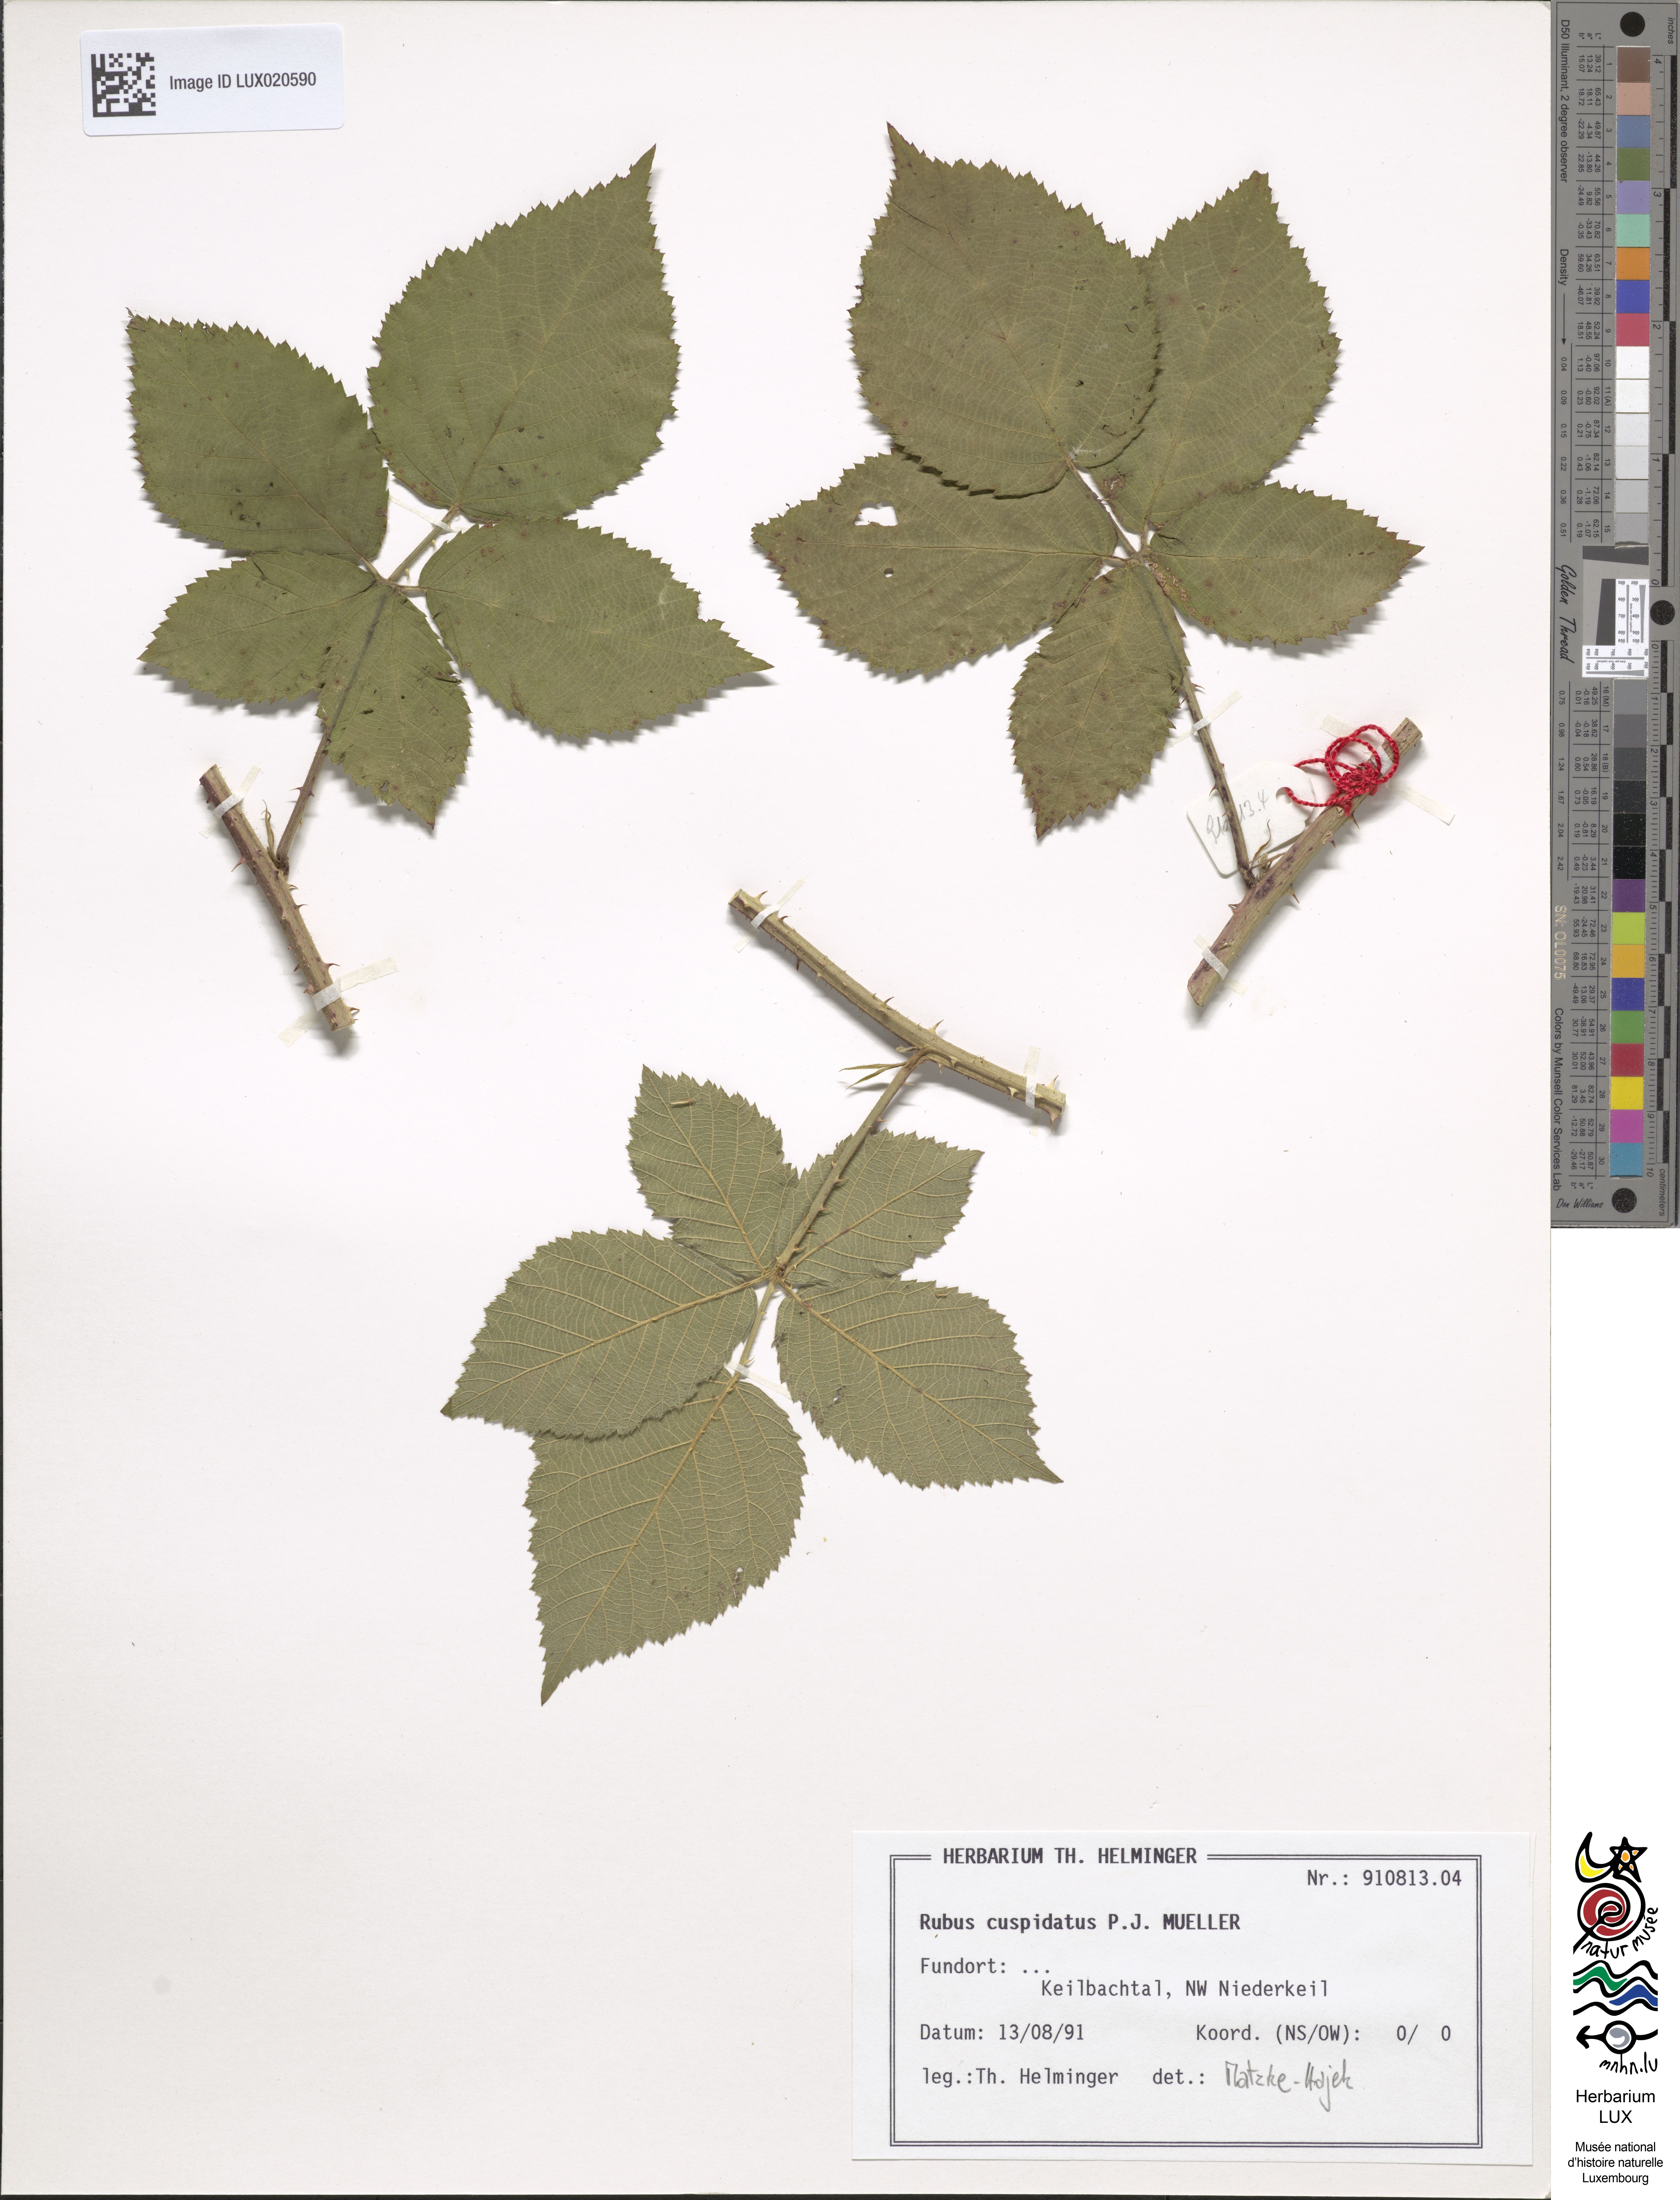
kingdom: Plantae
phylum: Tracheophyta
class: Magnoliopsida
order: Rosales
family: Rosaceae
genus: Rubus
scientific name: Rubus cuspidatus
